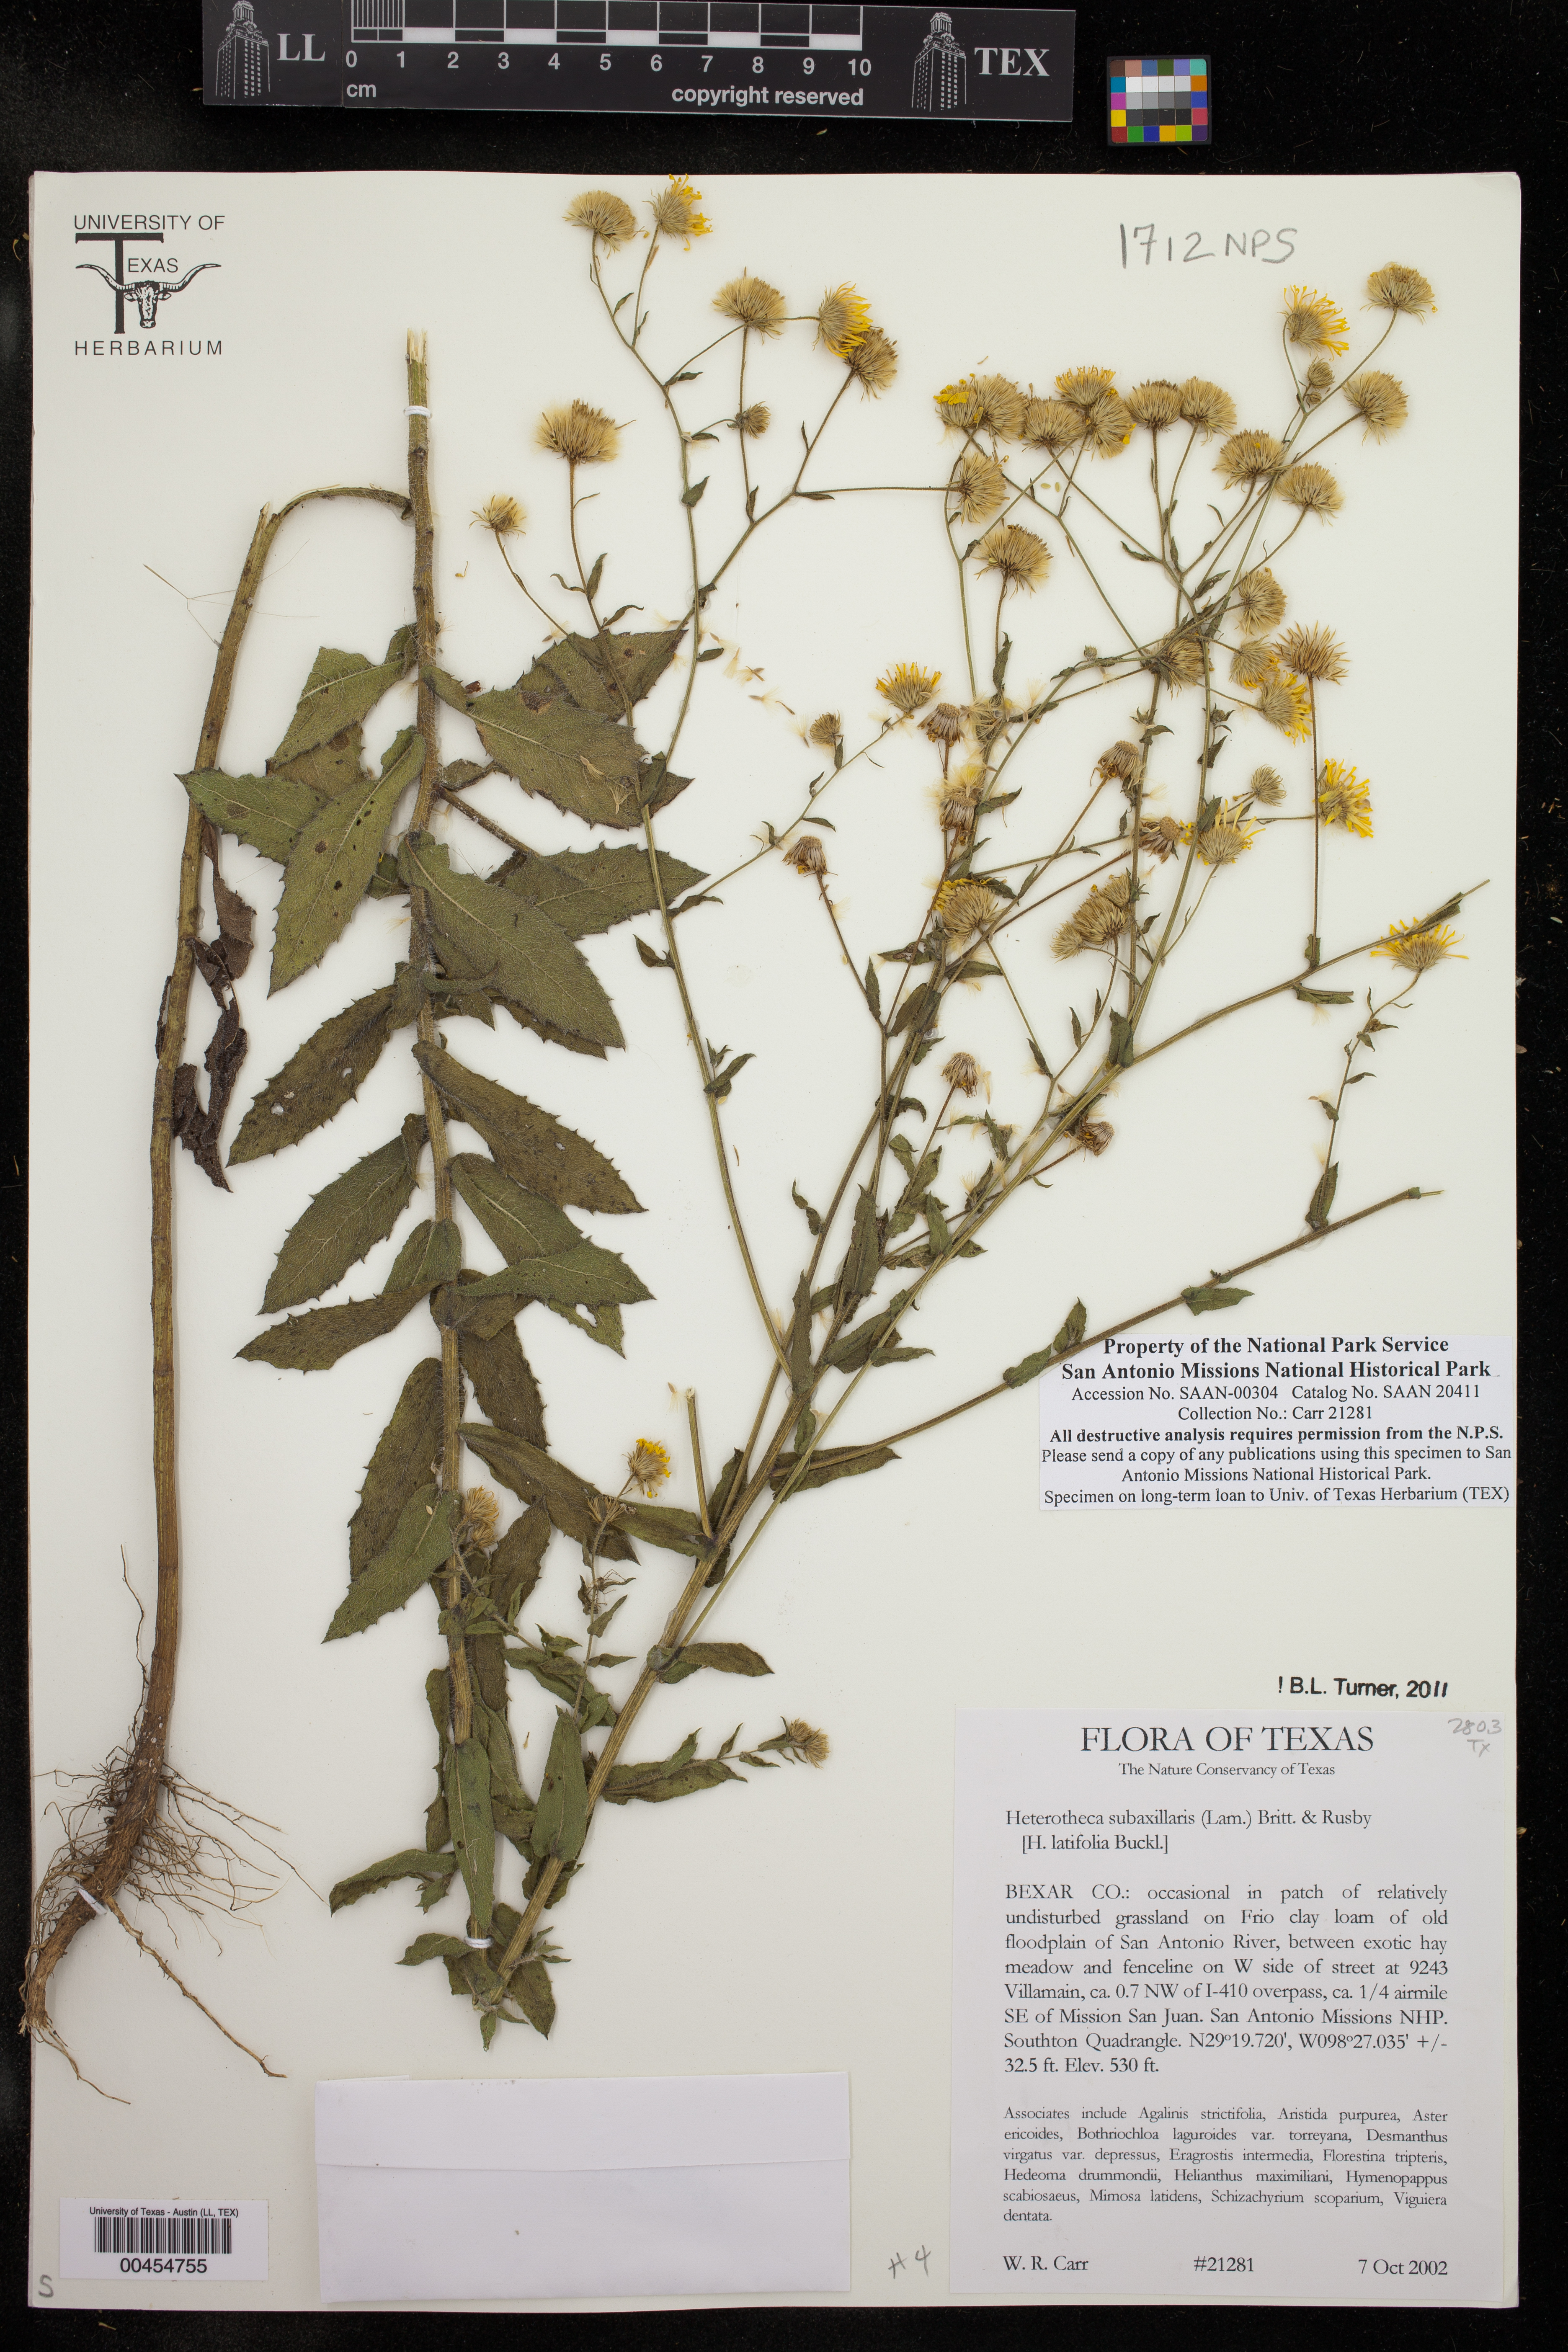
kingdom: Plantae
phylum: Tracheophyta
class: Magnoliopsida
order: Asterales
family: Asteraceae
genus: Heterotheca
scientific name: Heterotheca subaxillaris
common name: Camphorweed
